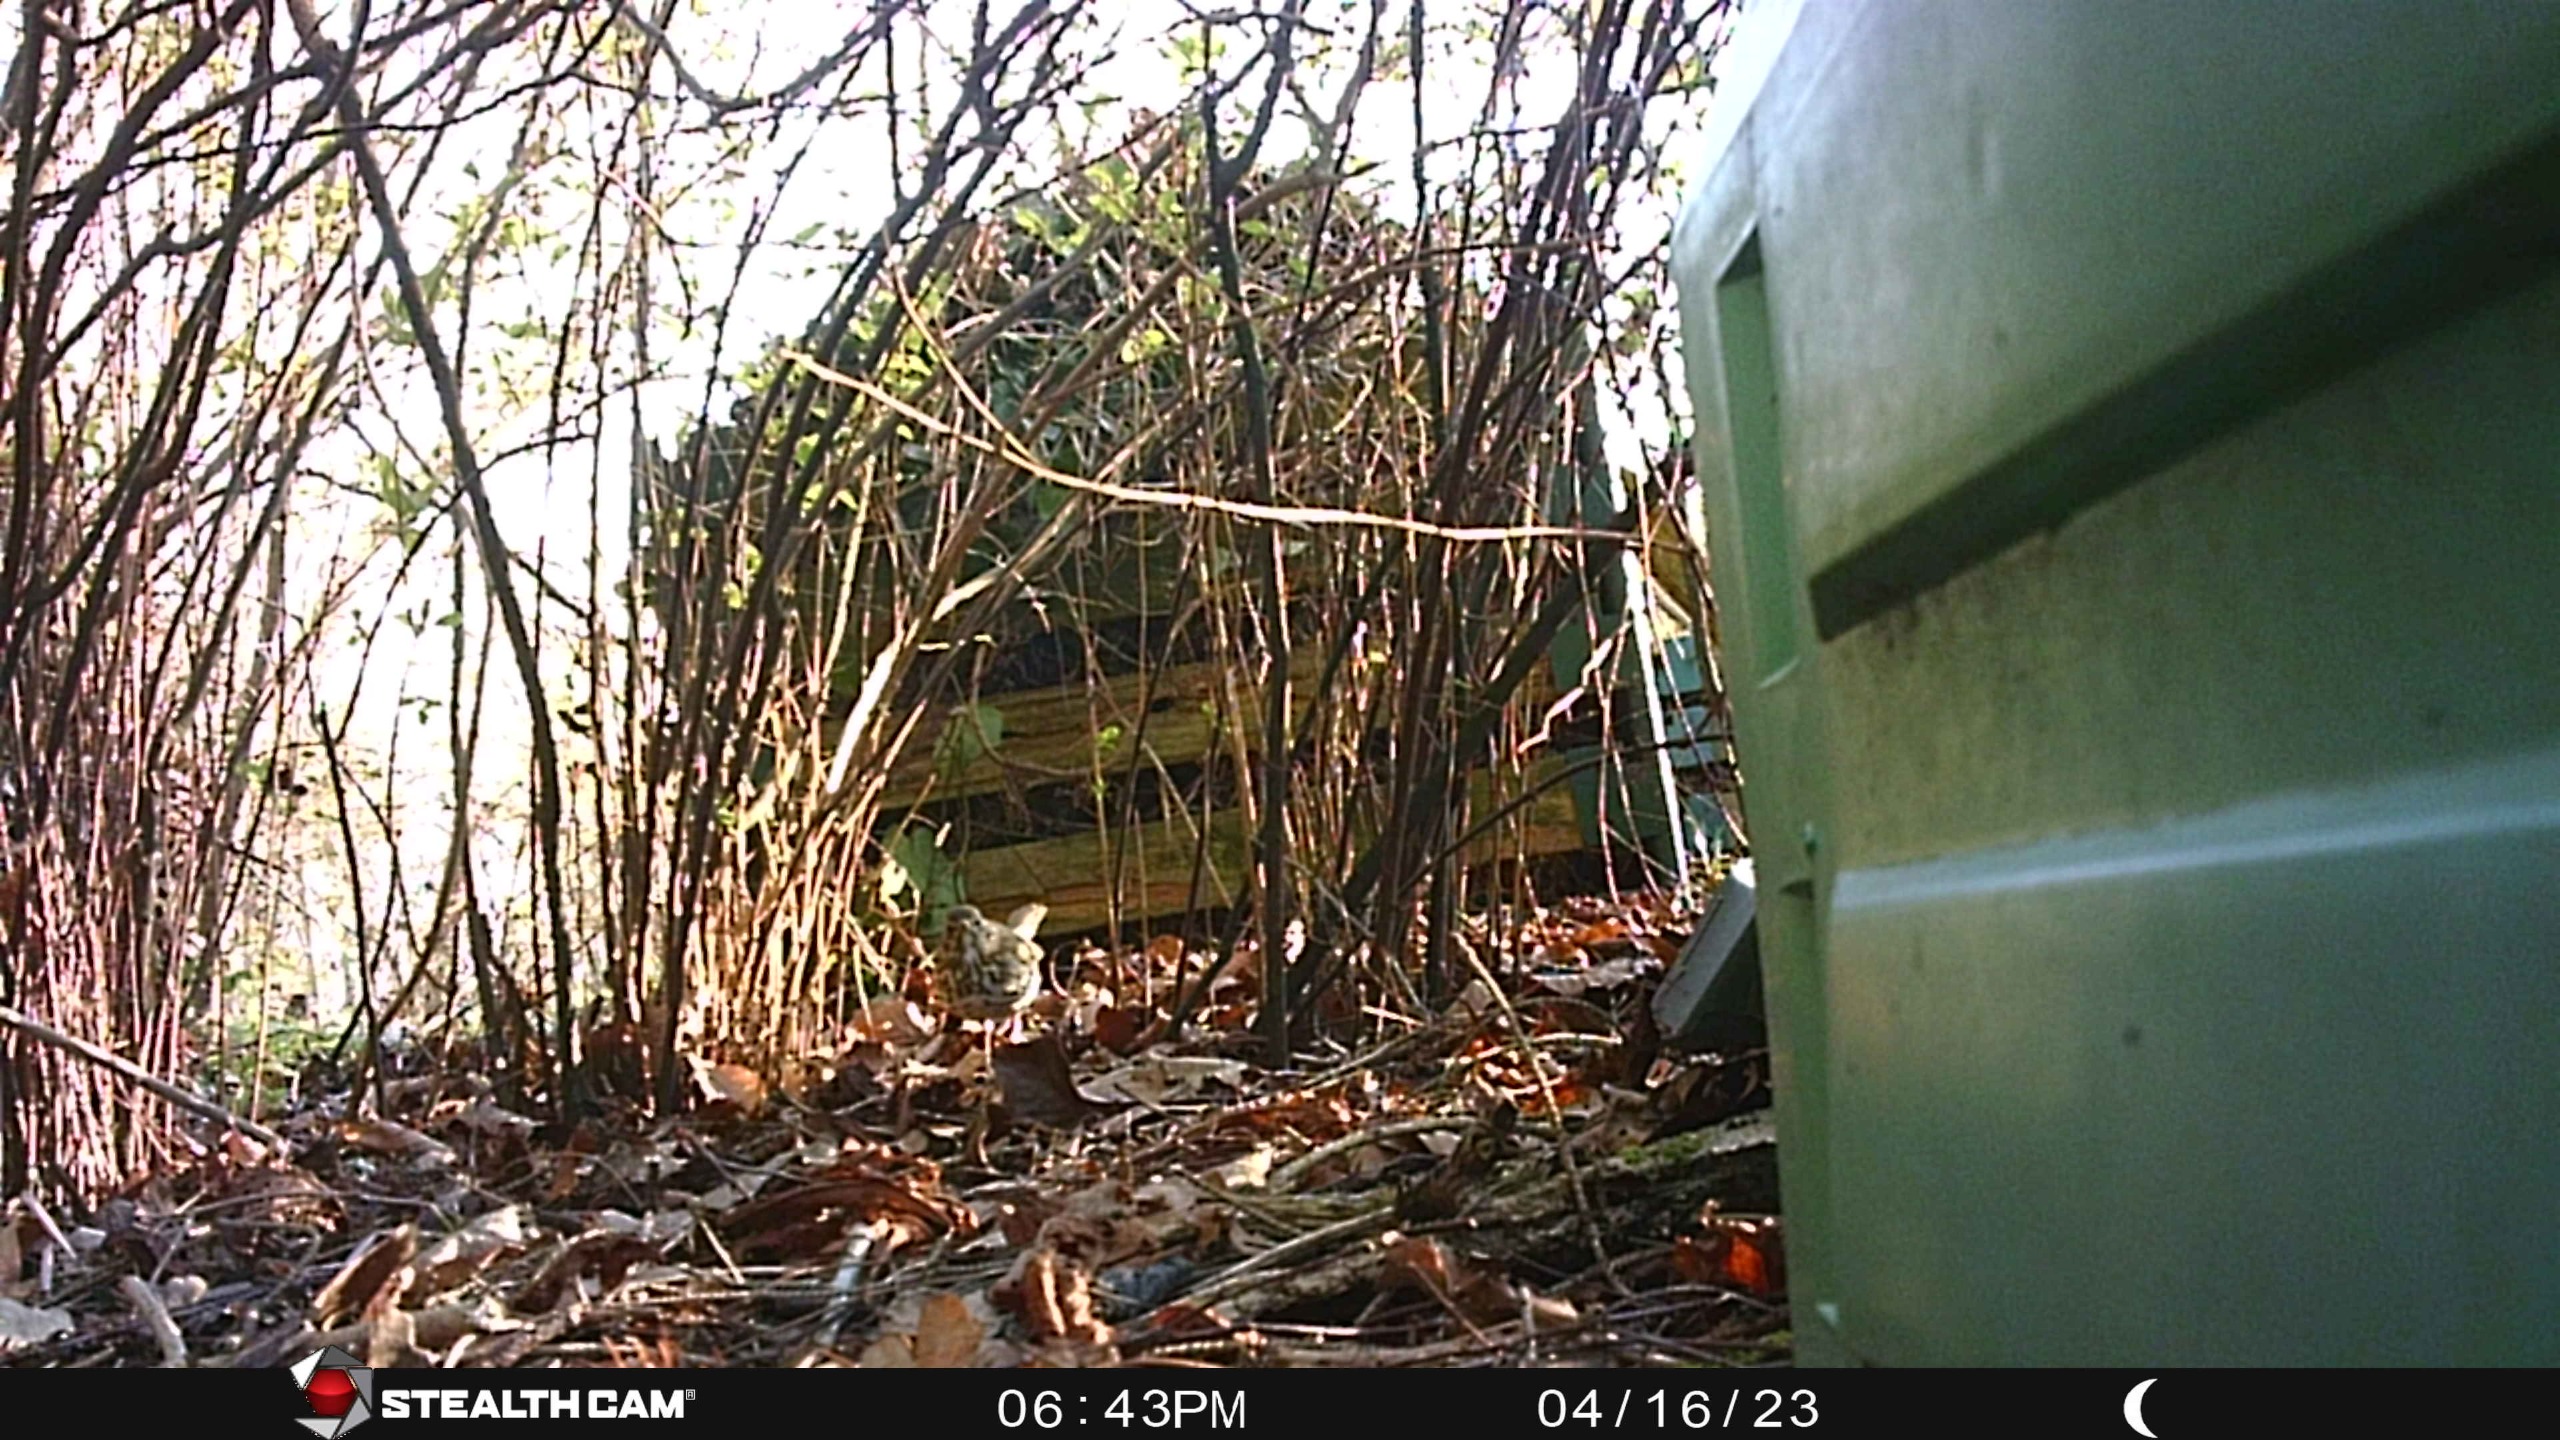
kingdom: Animalia
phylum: Chordata
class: Aves
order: Passeriformes
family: Turdidae
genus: Turdus
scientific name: Turdus philomelos
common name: Sangdrossel
